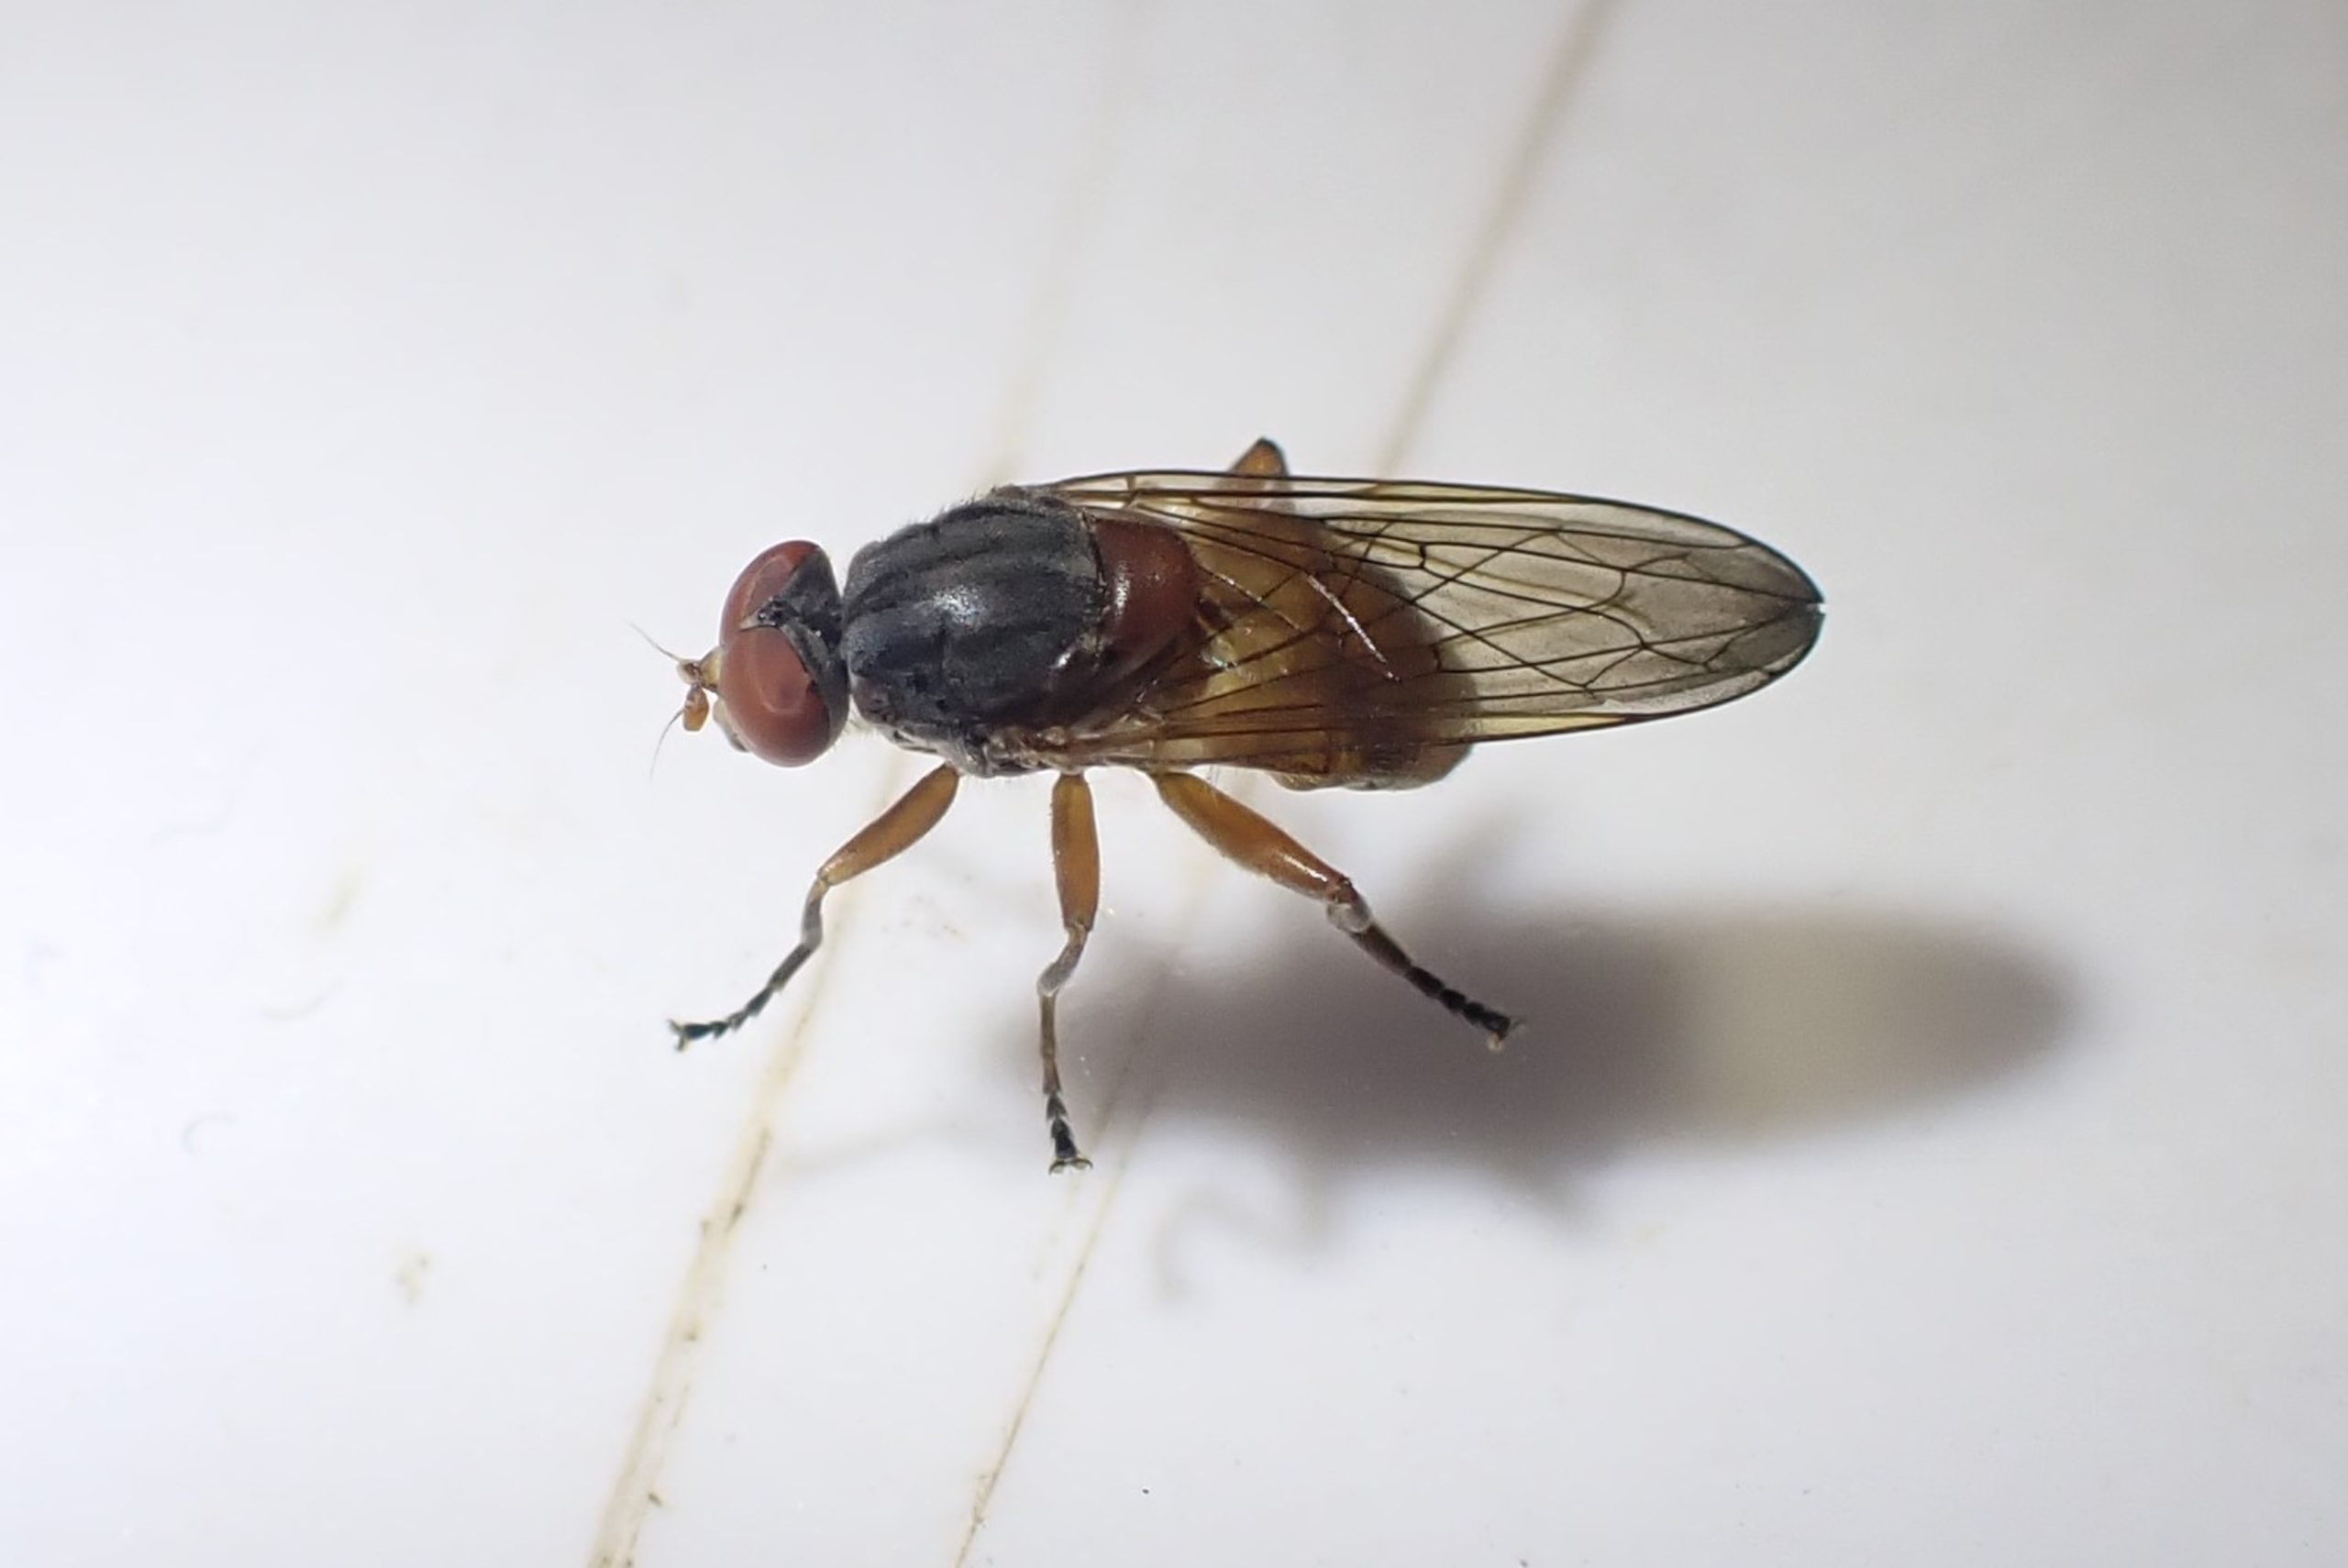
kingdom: Animalia
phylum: Arthropoda
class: Insecta
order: Diptera
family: Syrphidae
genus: Brachyopa
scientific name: Brachyopa pilosa
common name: Bøge-træsaftsvirreflue
